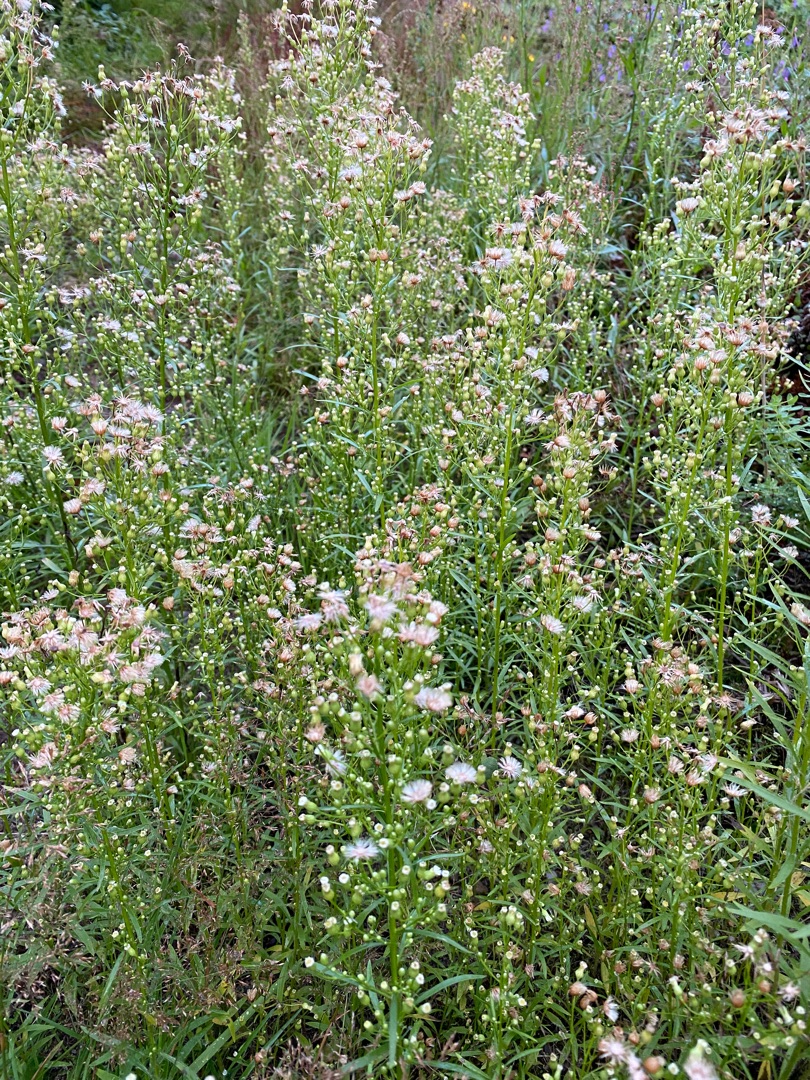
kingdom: Plantae
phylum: Tracheophyta
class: Magnoliopsida
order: Asterales
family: Asteraceae
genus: Erigeron
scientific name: Erigeron canadensis
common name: Kanadisk bakkestjerne
